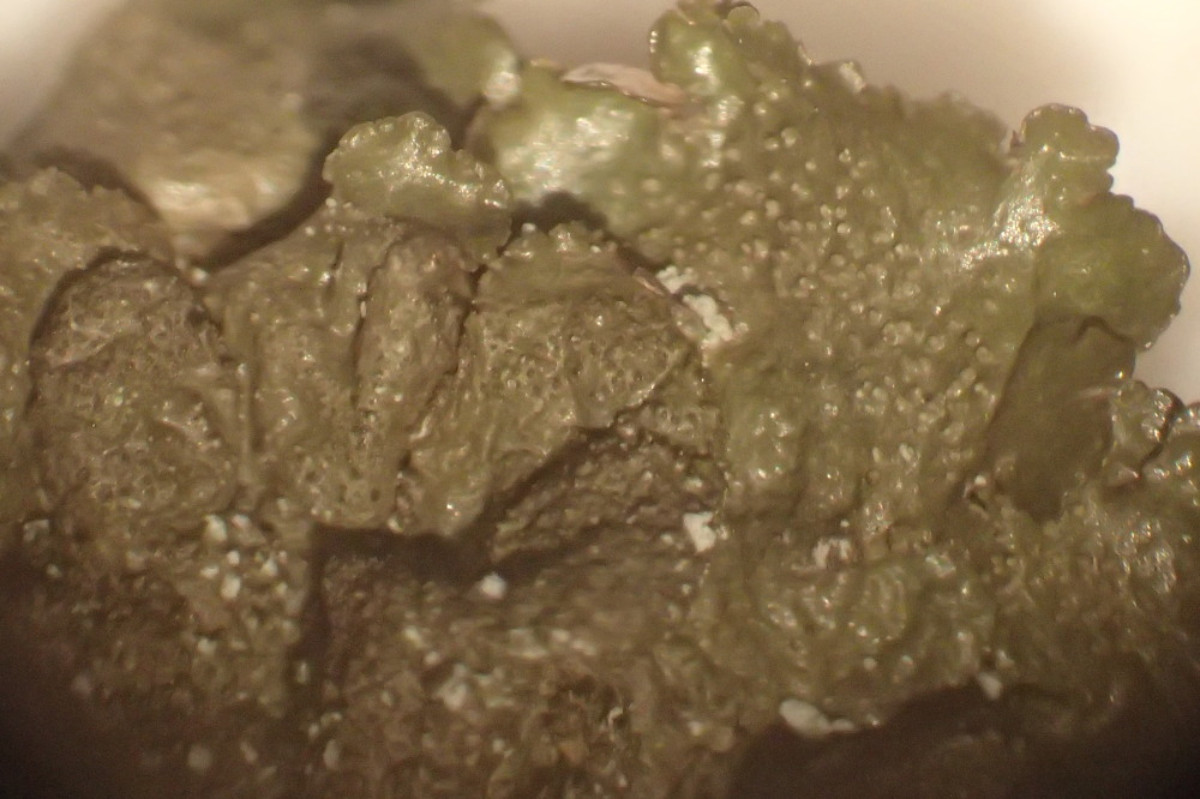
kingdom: Fungi
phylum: Ascomycota
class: Lecanoromycetes
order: Lecanorales
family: Parmeliaceae
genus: Melanelixia
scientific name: Melanelixia subaurifera
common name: guldpudret skållav
